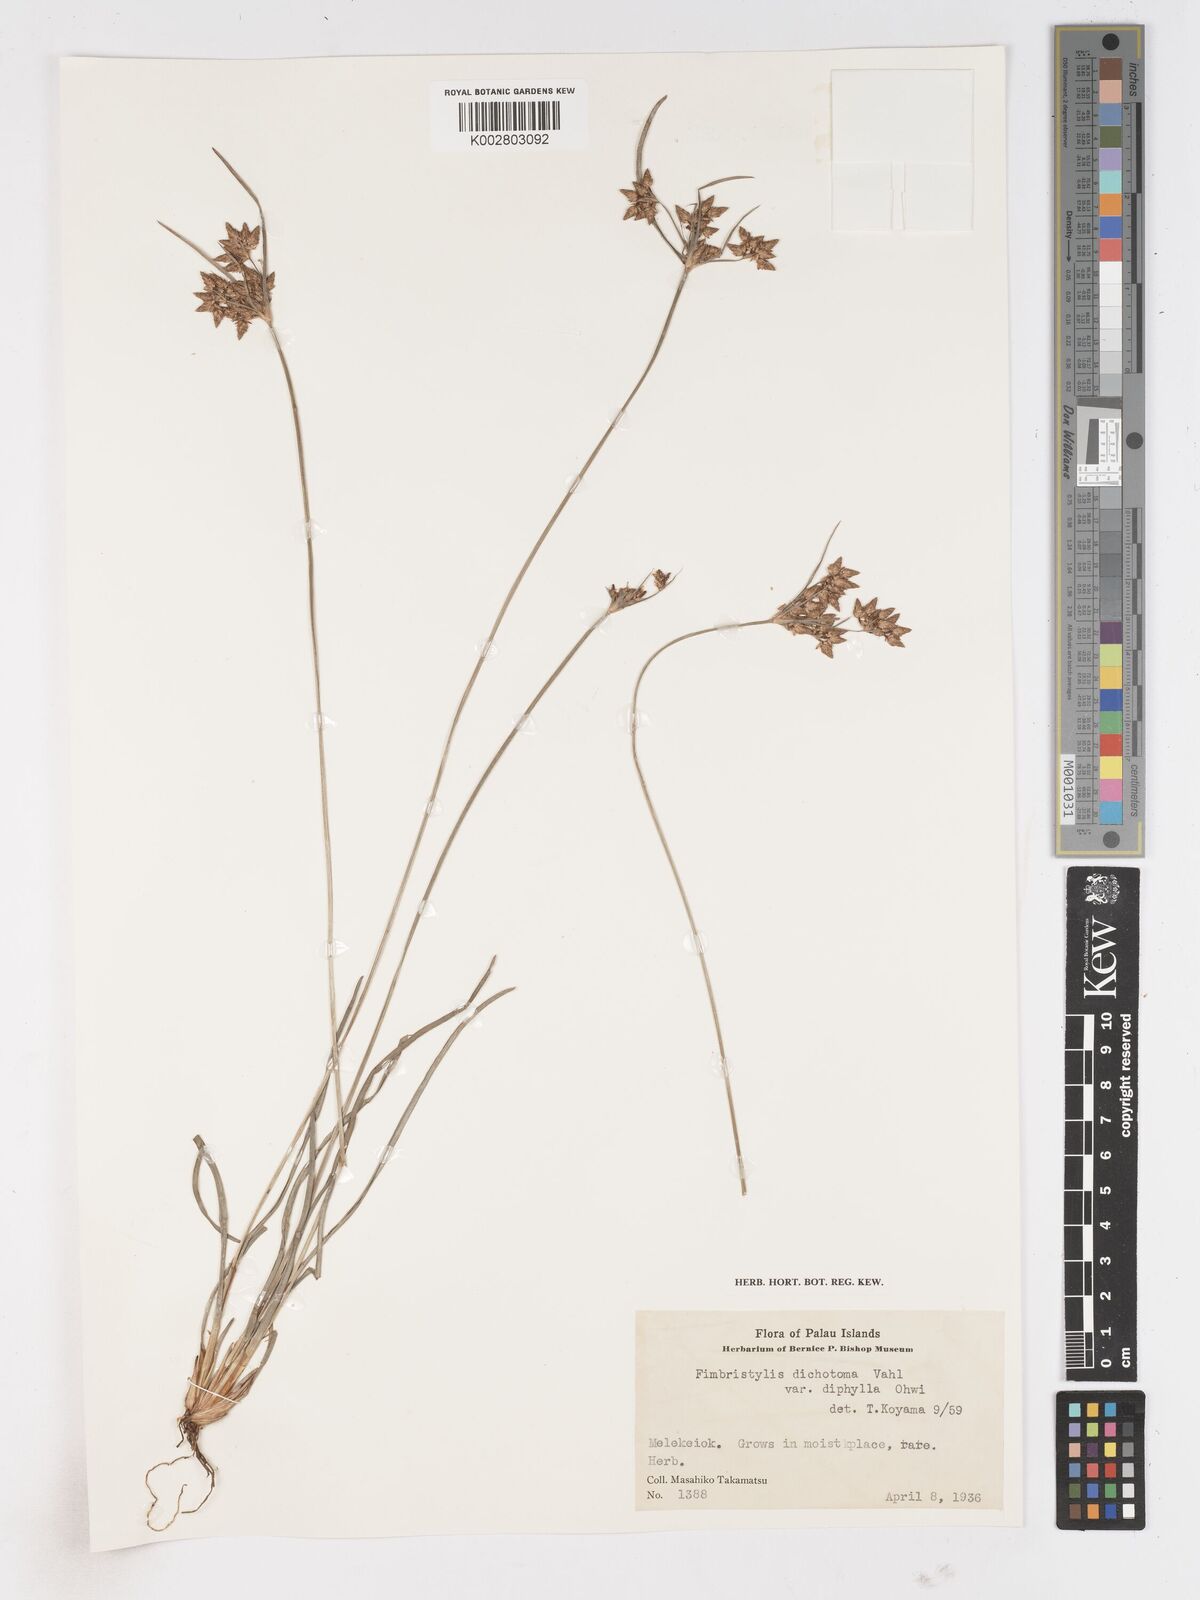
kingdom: Plantae
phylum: Tracheophyta
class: Liliopsida
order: Poales
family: Cyperaceae
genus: Fimbristylis
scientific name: Fimbristylis dichotoma
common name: Forked fimbry
